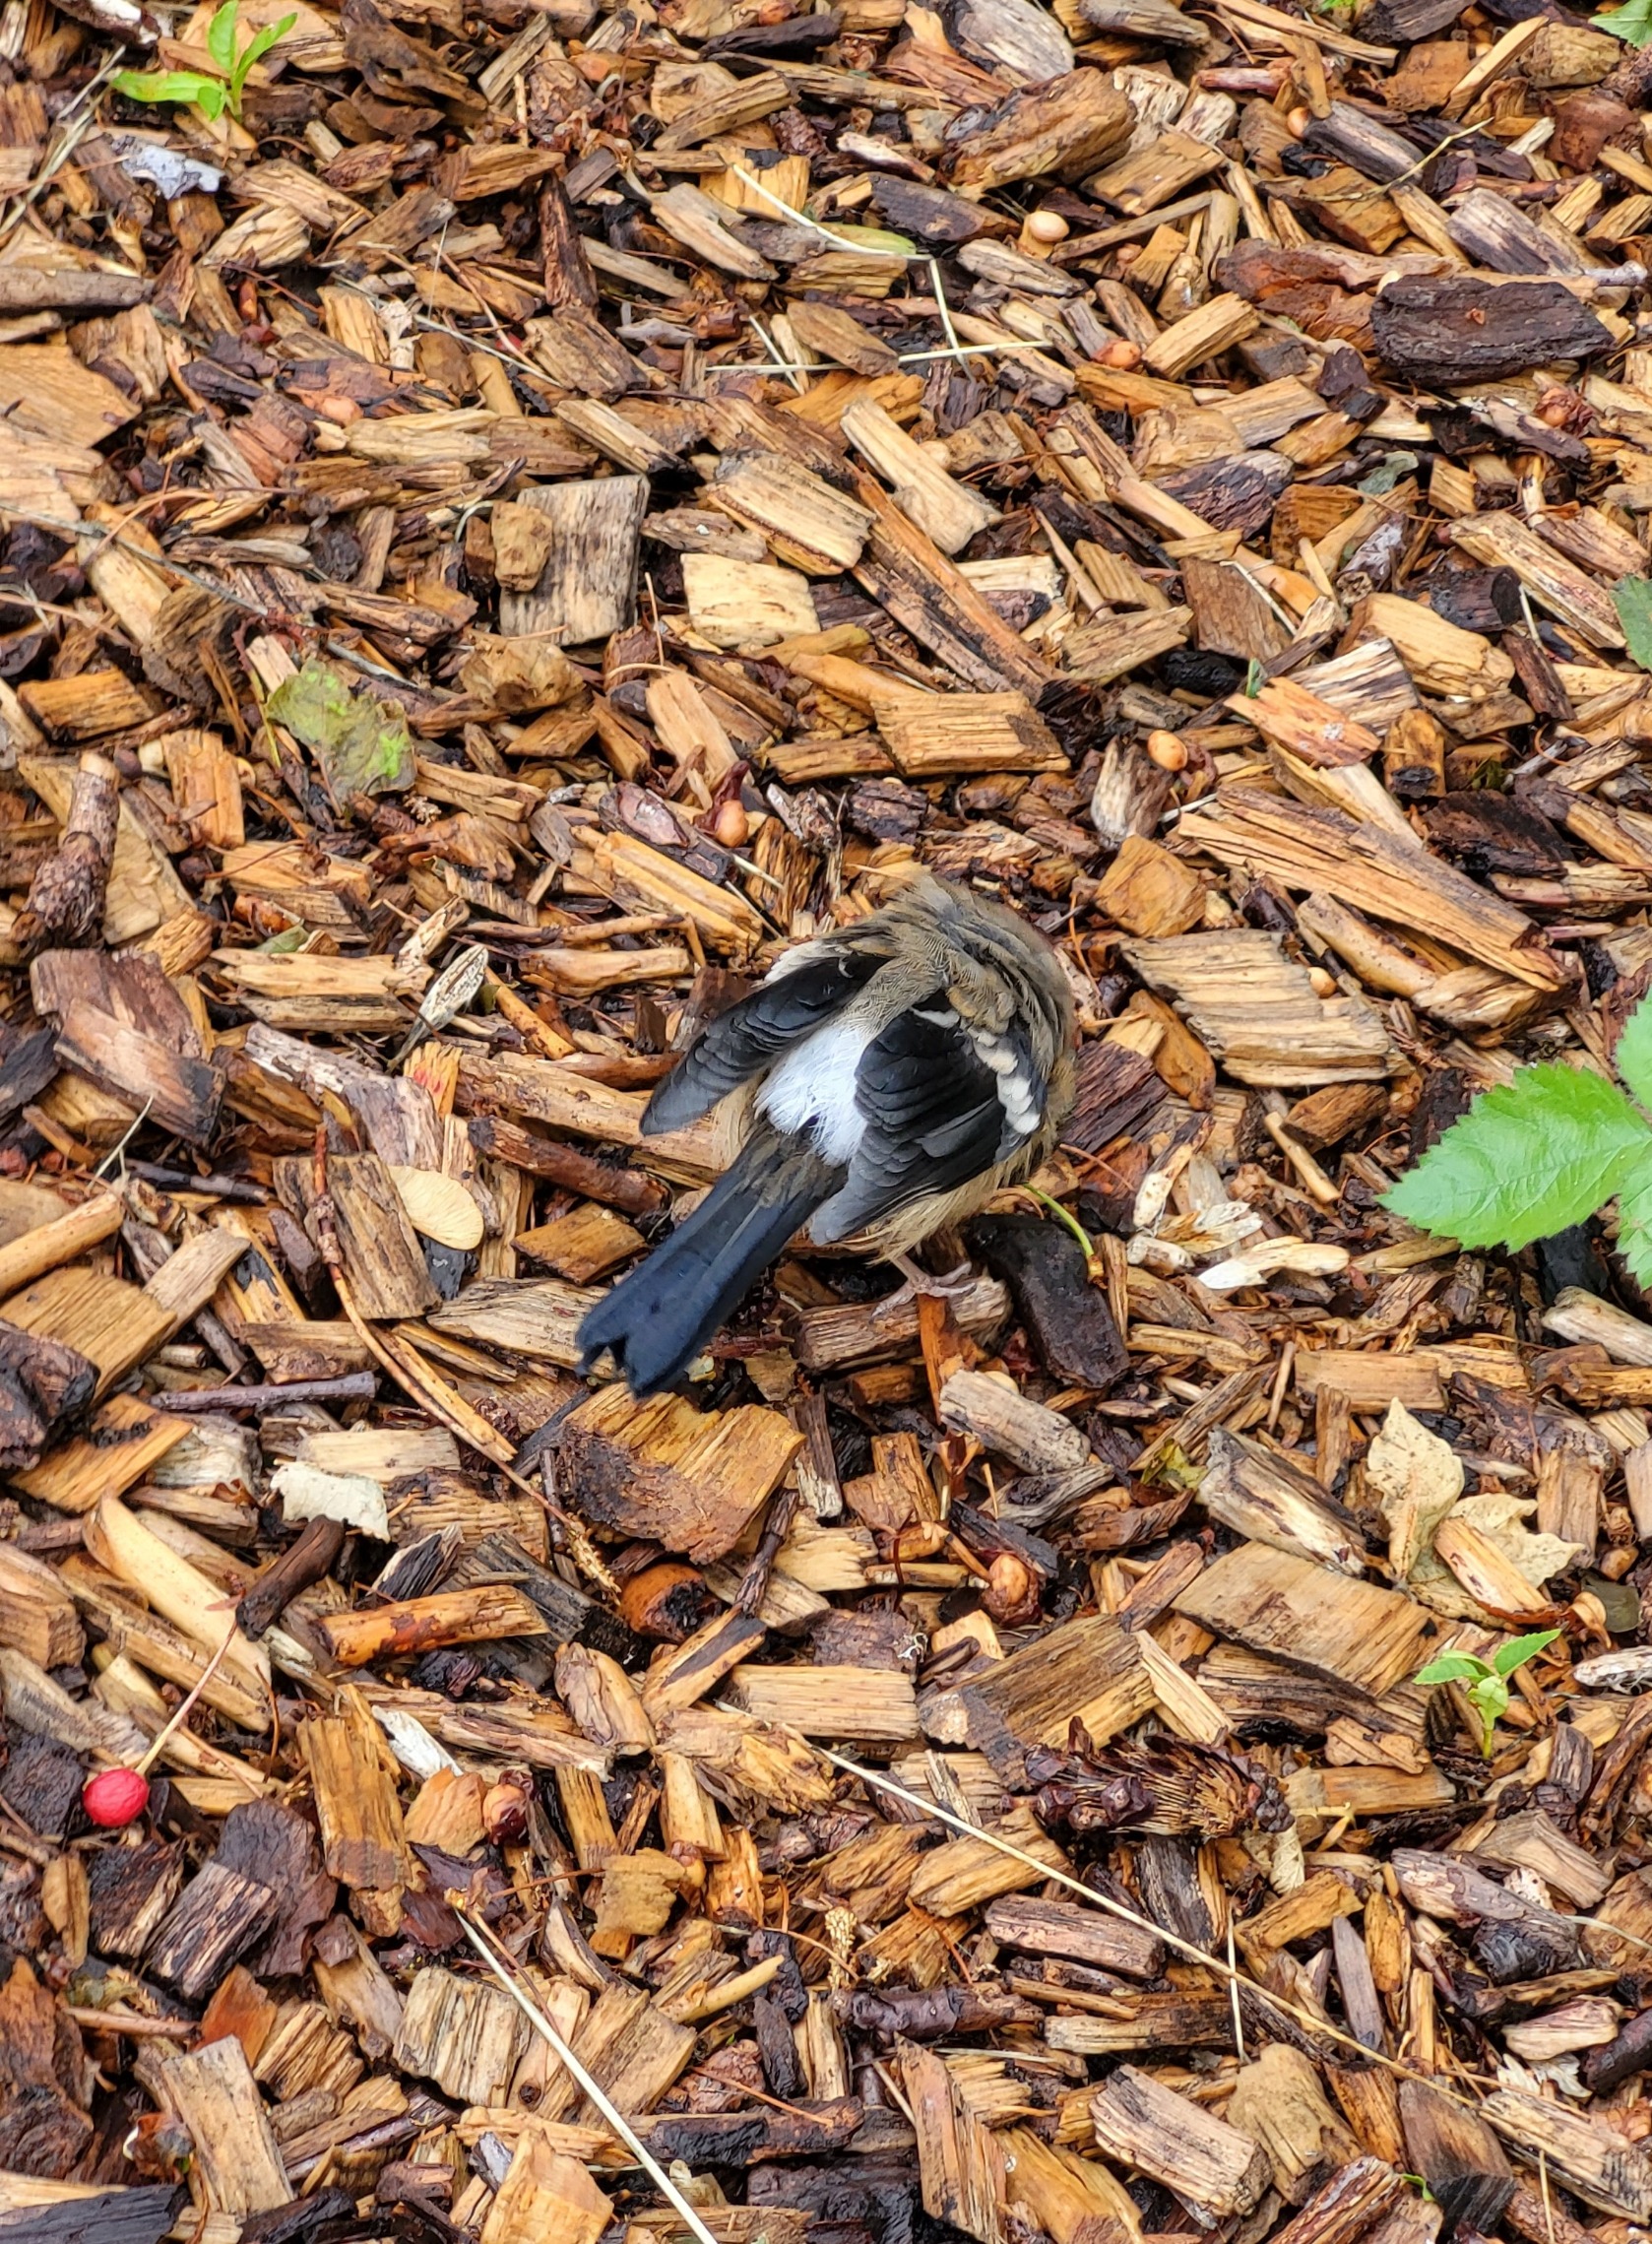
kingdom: Animalia
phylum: Chordata
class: Aves
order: Passeriformes
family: Fringillidae
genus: Pyrrhula
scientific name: Pyrrhula pyrrhula
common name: Dompap
